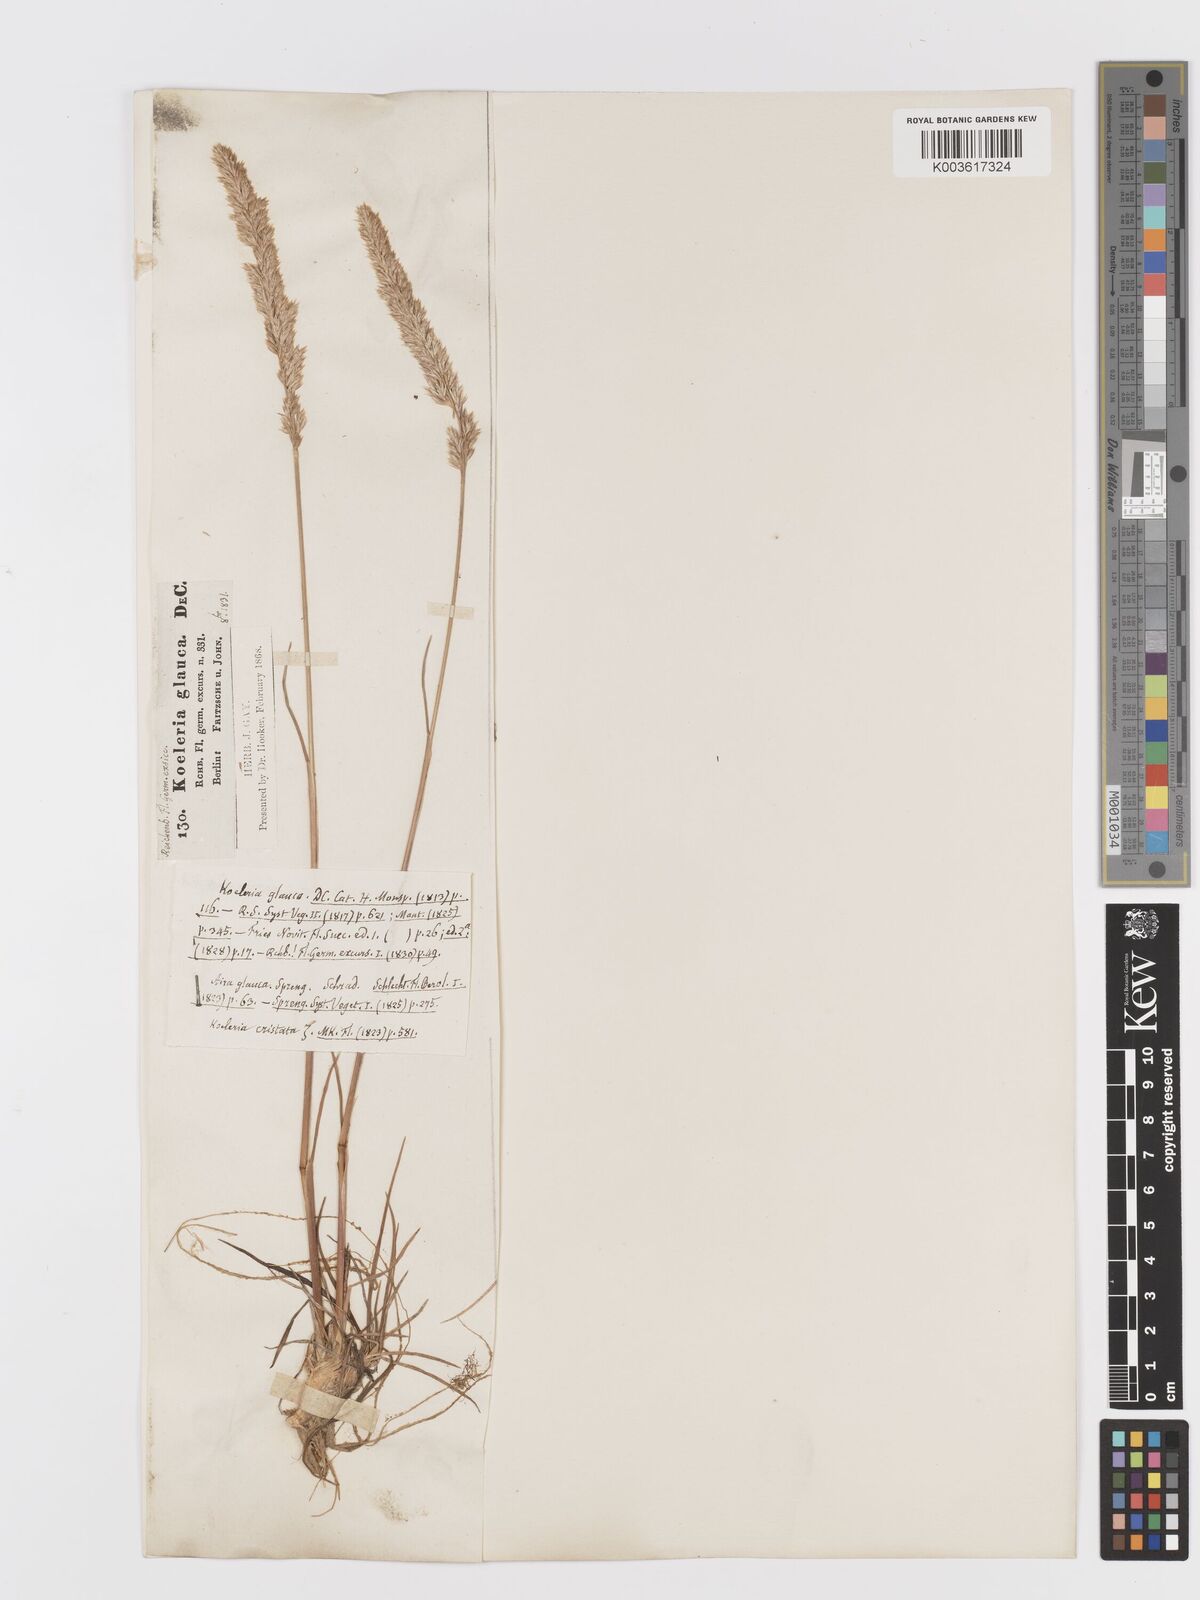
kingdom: Plantae
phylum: Tracheophyta
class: Liliopsida
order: Poales
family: Poaceae
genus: Koeleria
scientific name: Koeleria glauca
